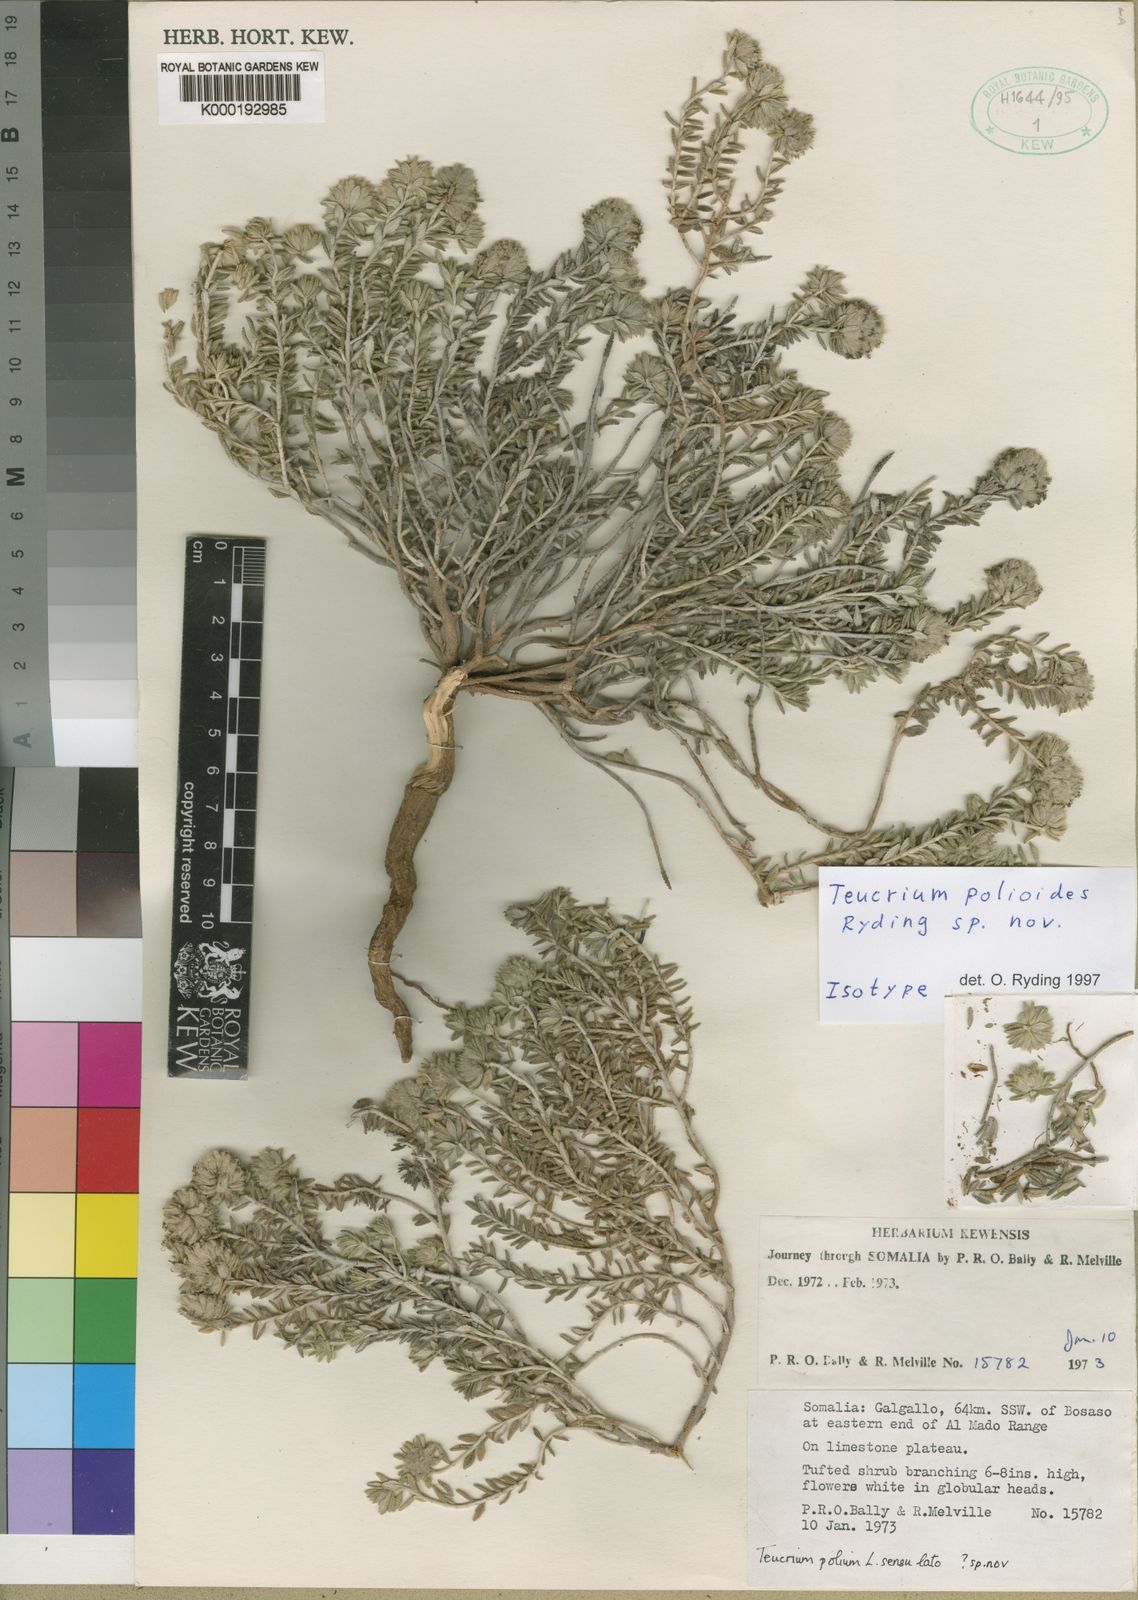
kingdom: Plantae
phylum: Tracheophyta
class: Magnoliopsida
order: Lamiales
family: Lamiaceae
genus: Teucrium
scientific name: Teucrium polioides
